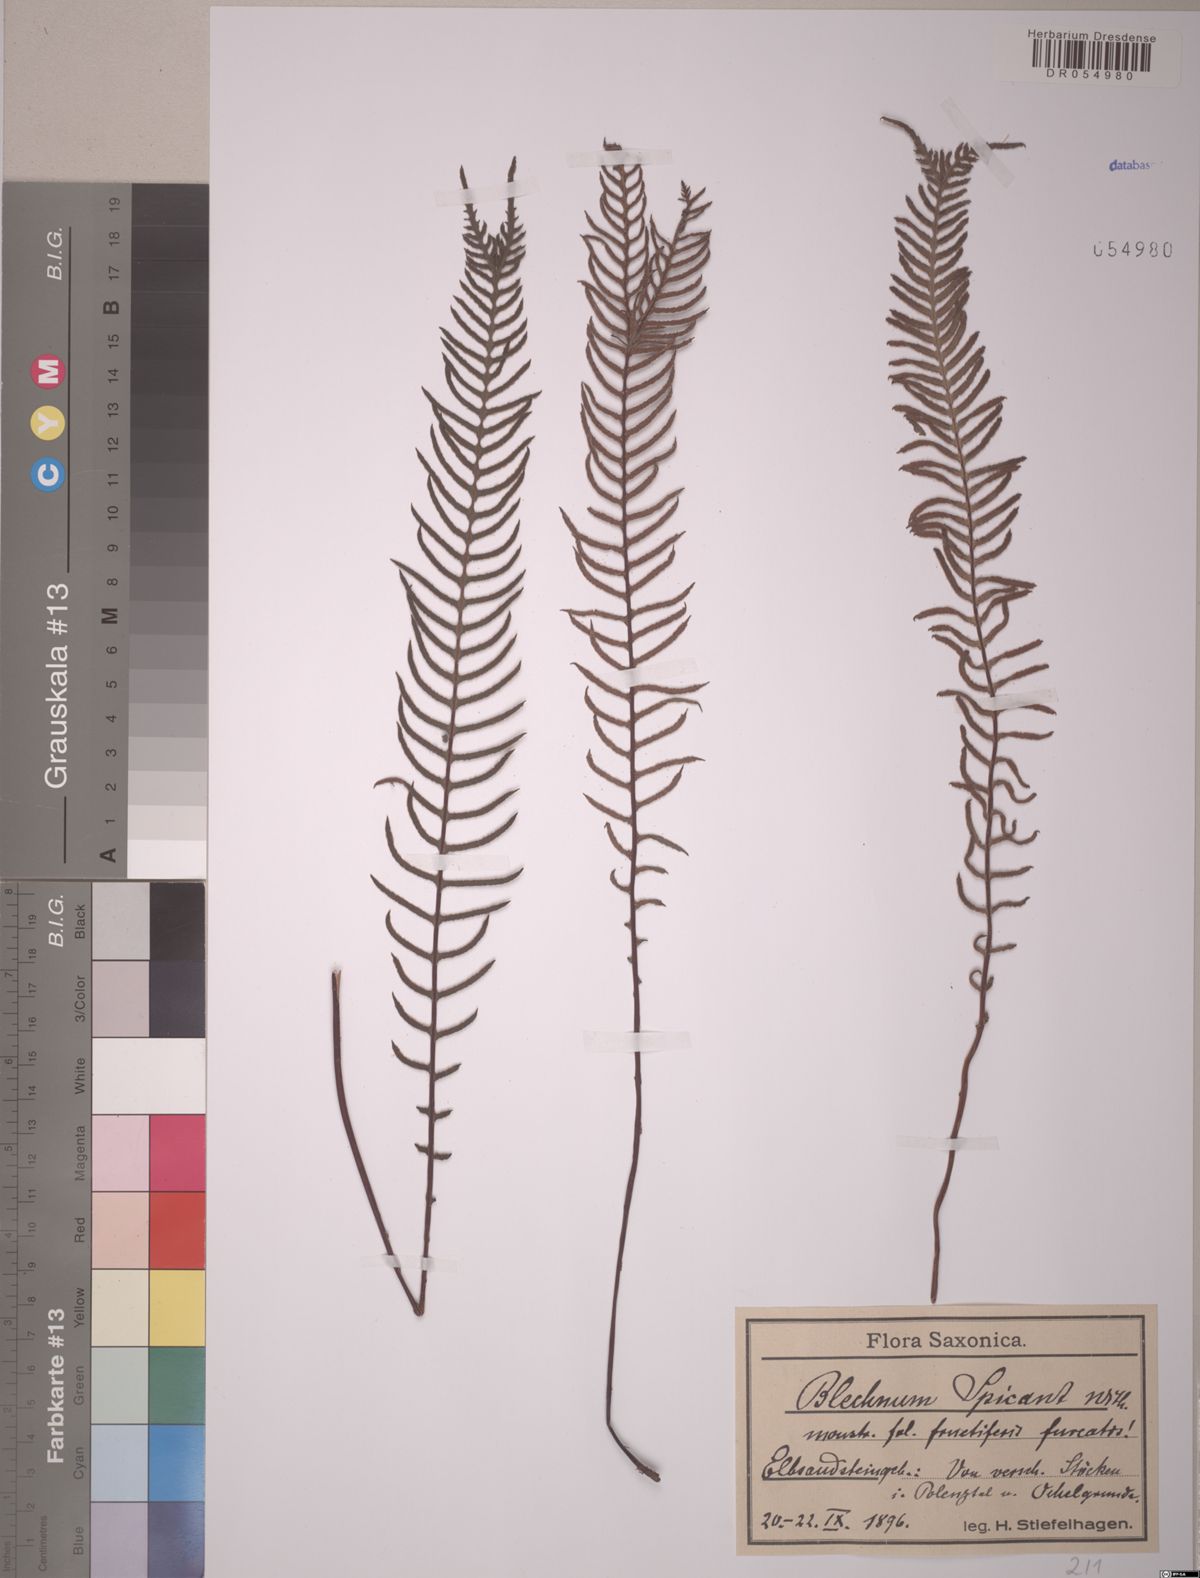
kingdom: Plantae
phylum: Tracheophyta
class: Polypodiopsida
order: Polypodiales
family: Blechnaceae
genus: Struthiopteris
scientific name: Struthiopteris spicant
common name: Deer fern
